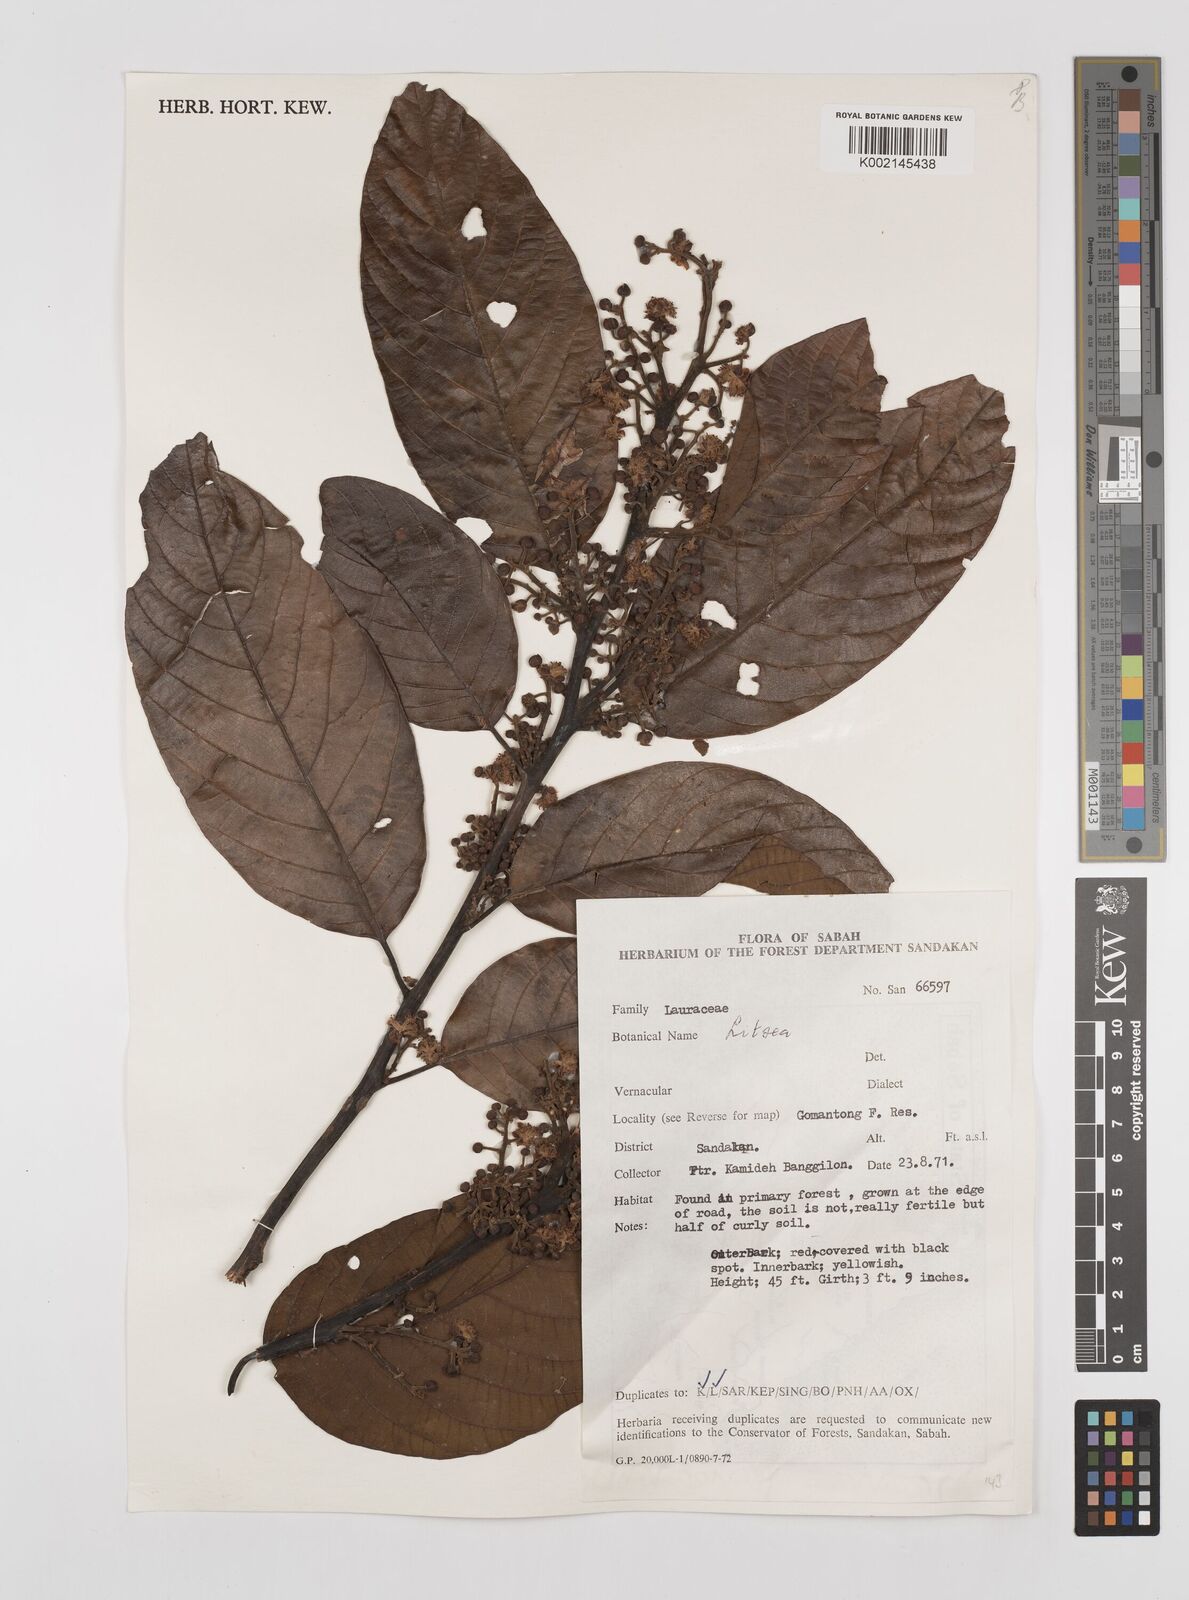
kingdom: Plantae
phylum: Tracheophyta
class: Magnoliopsida
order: Laurales
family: Lauraceae
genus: Litsea
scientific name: Litsea
